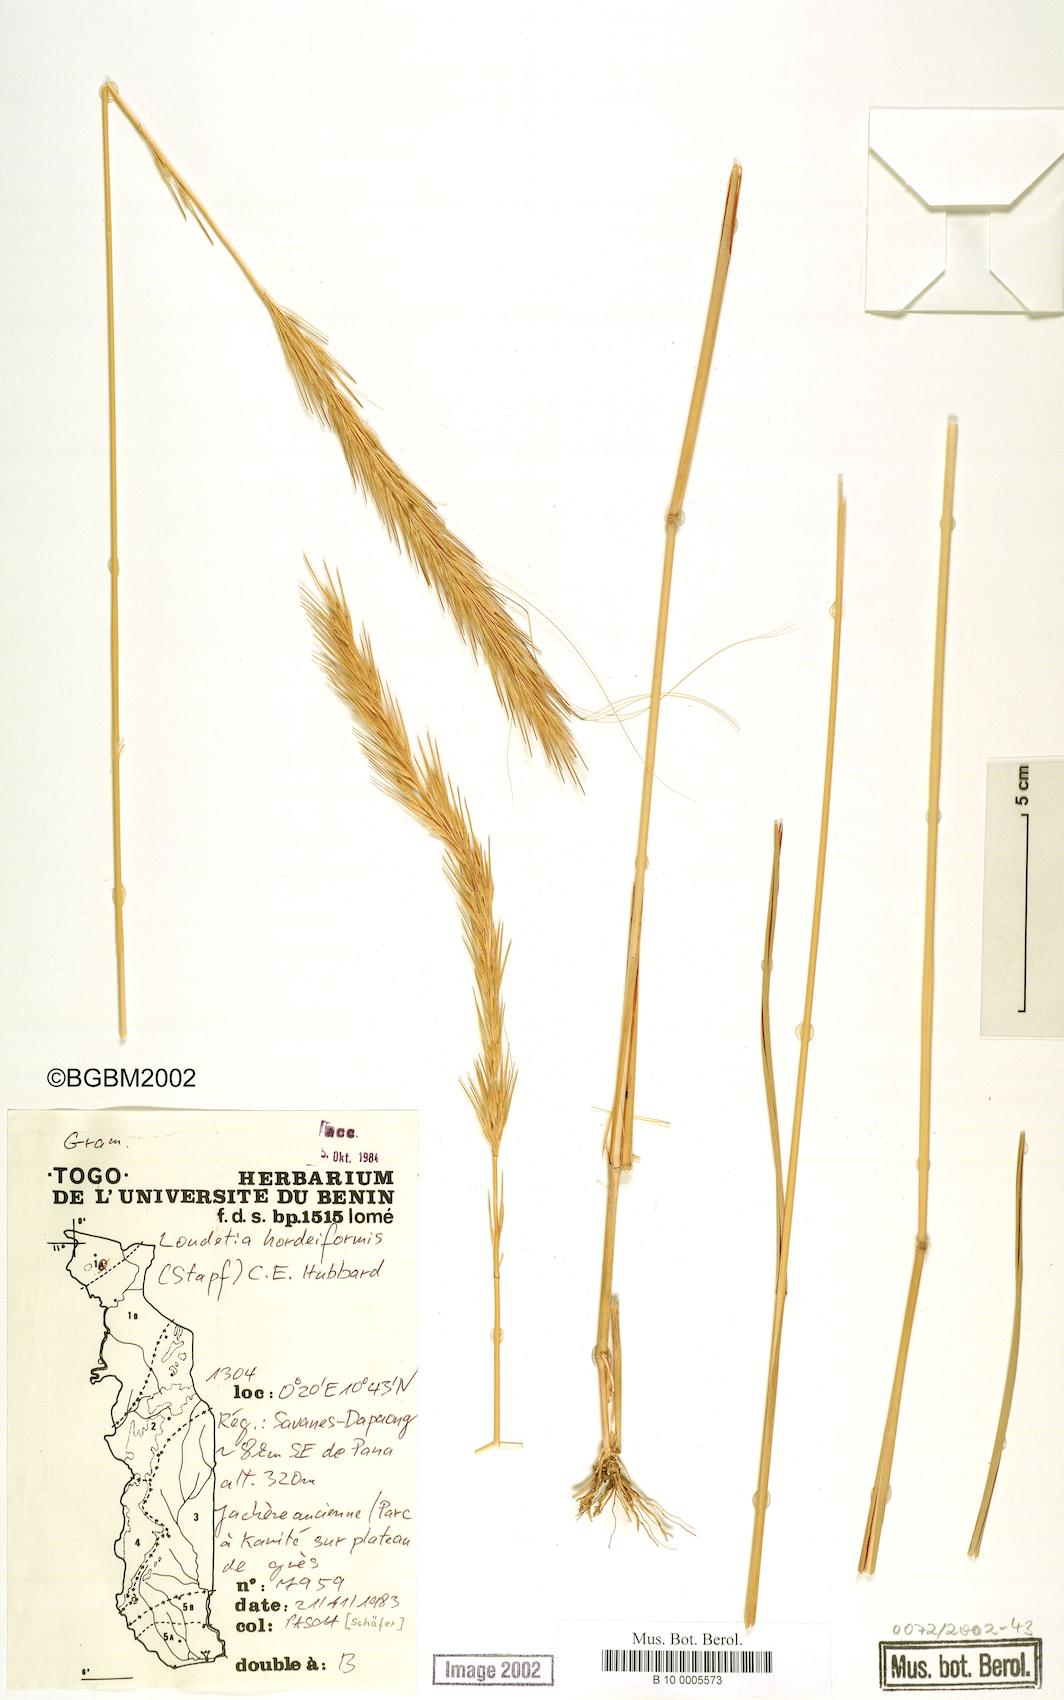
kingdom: Plantae
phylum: Tracheophyta
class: Liliopsida
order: Poales
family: Poaceae
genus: Loudetia
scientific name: Loudetia hordeiformis
